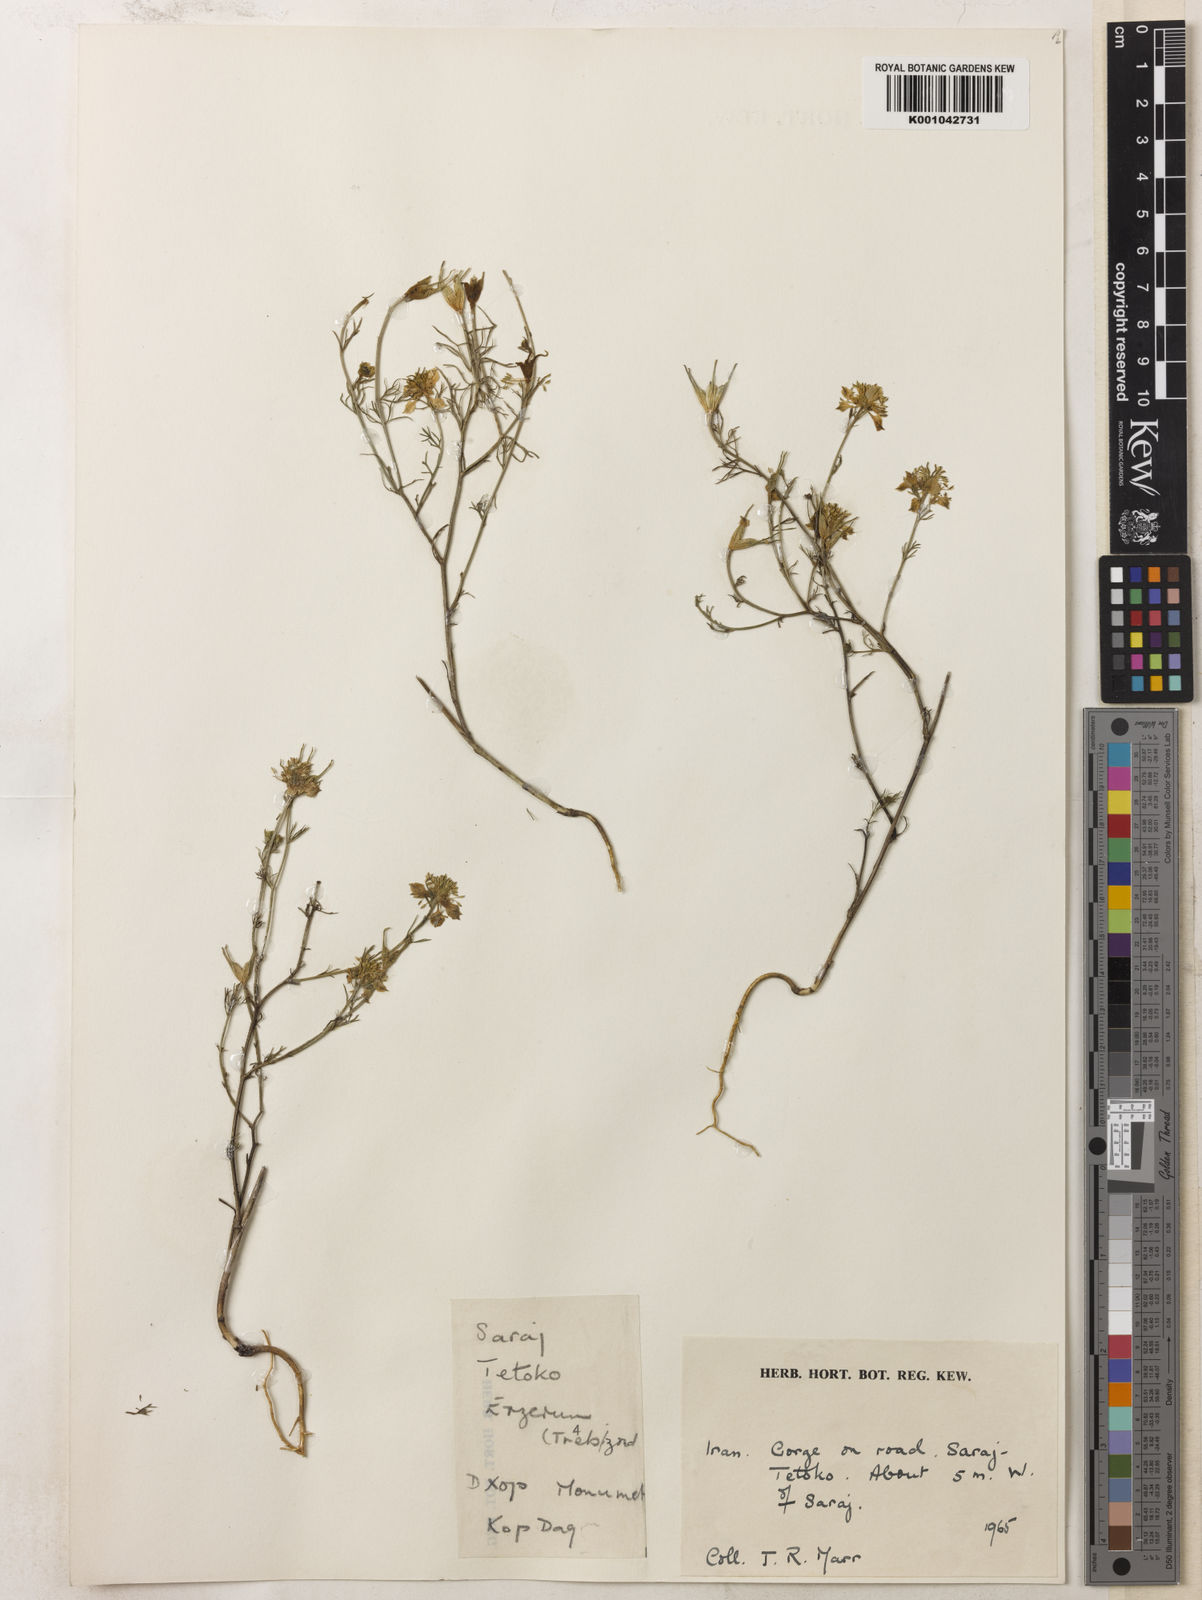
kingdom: Plantae
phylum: Tracheophyta
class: Magnoliopsida
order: Ranunculales
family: Ranunculaceae
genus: Nigella
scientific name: Nigella arvensis
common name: Wild fennel-flower
